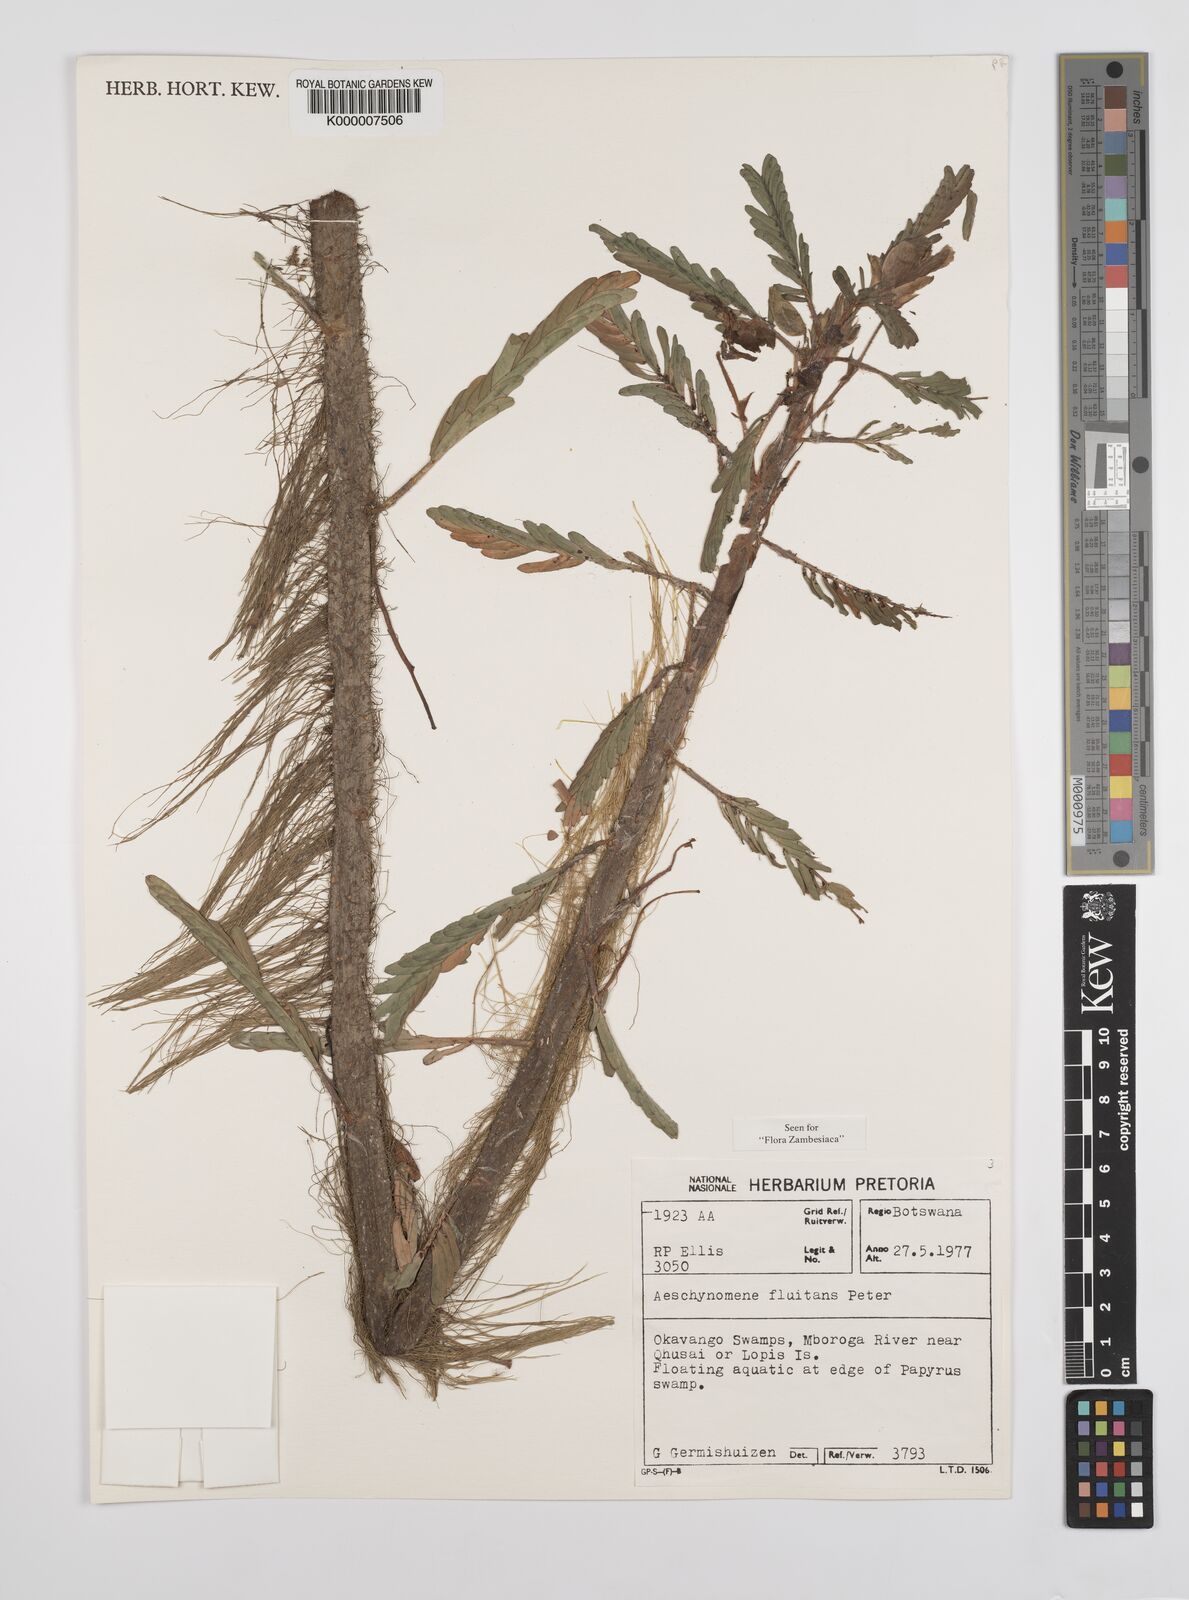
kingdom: Plantae
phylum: Tracheophyta
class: Magnoliopsida
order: Fabales
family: Fabaceae
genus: Aeschynomene
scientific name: Aeschynomene fluitans
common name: Giant water sensitive plant
